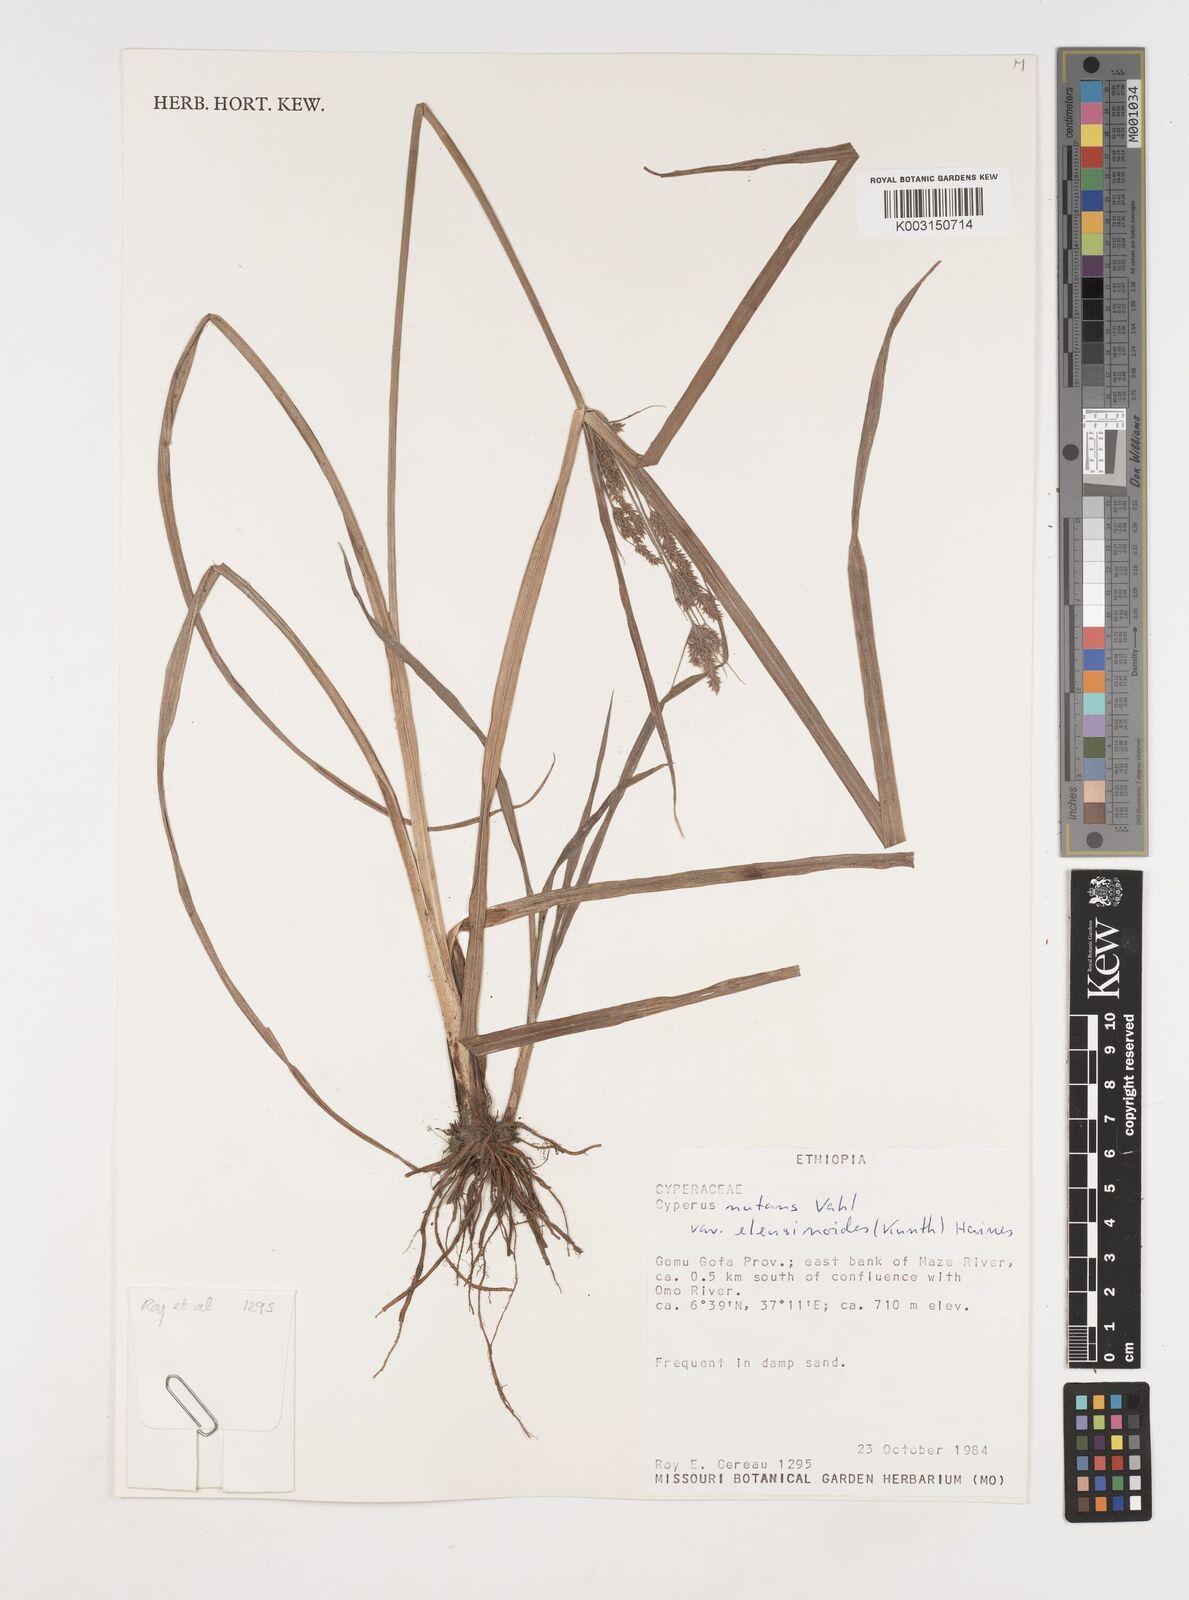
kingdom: Plantae
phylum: Tracheophyta
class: Liliopsida
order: Poales
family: Cyperaceae
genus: Cyperus
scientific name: Cyperus nutans
